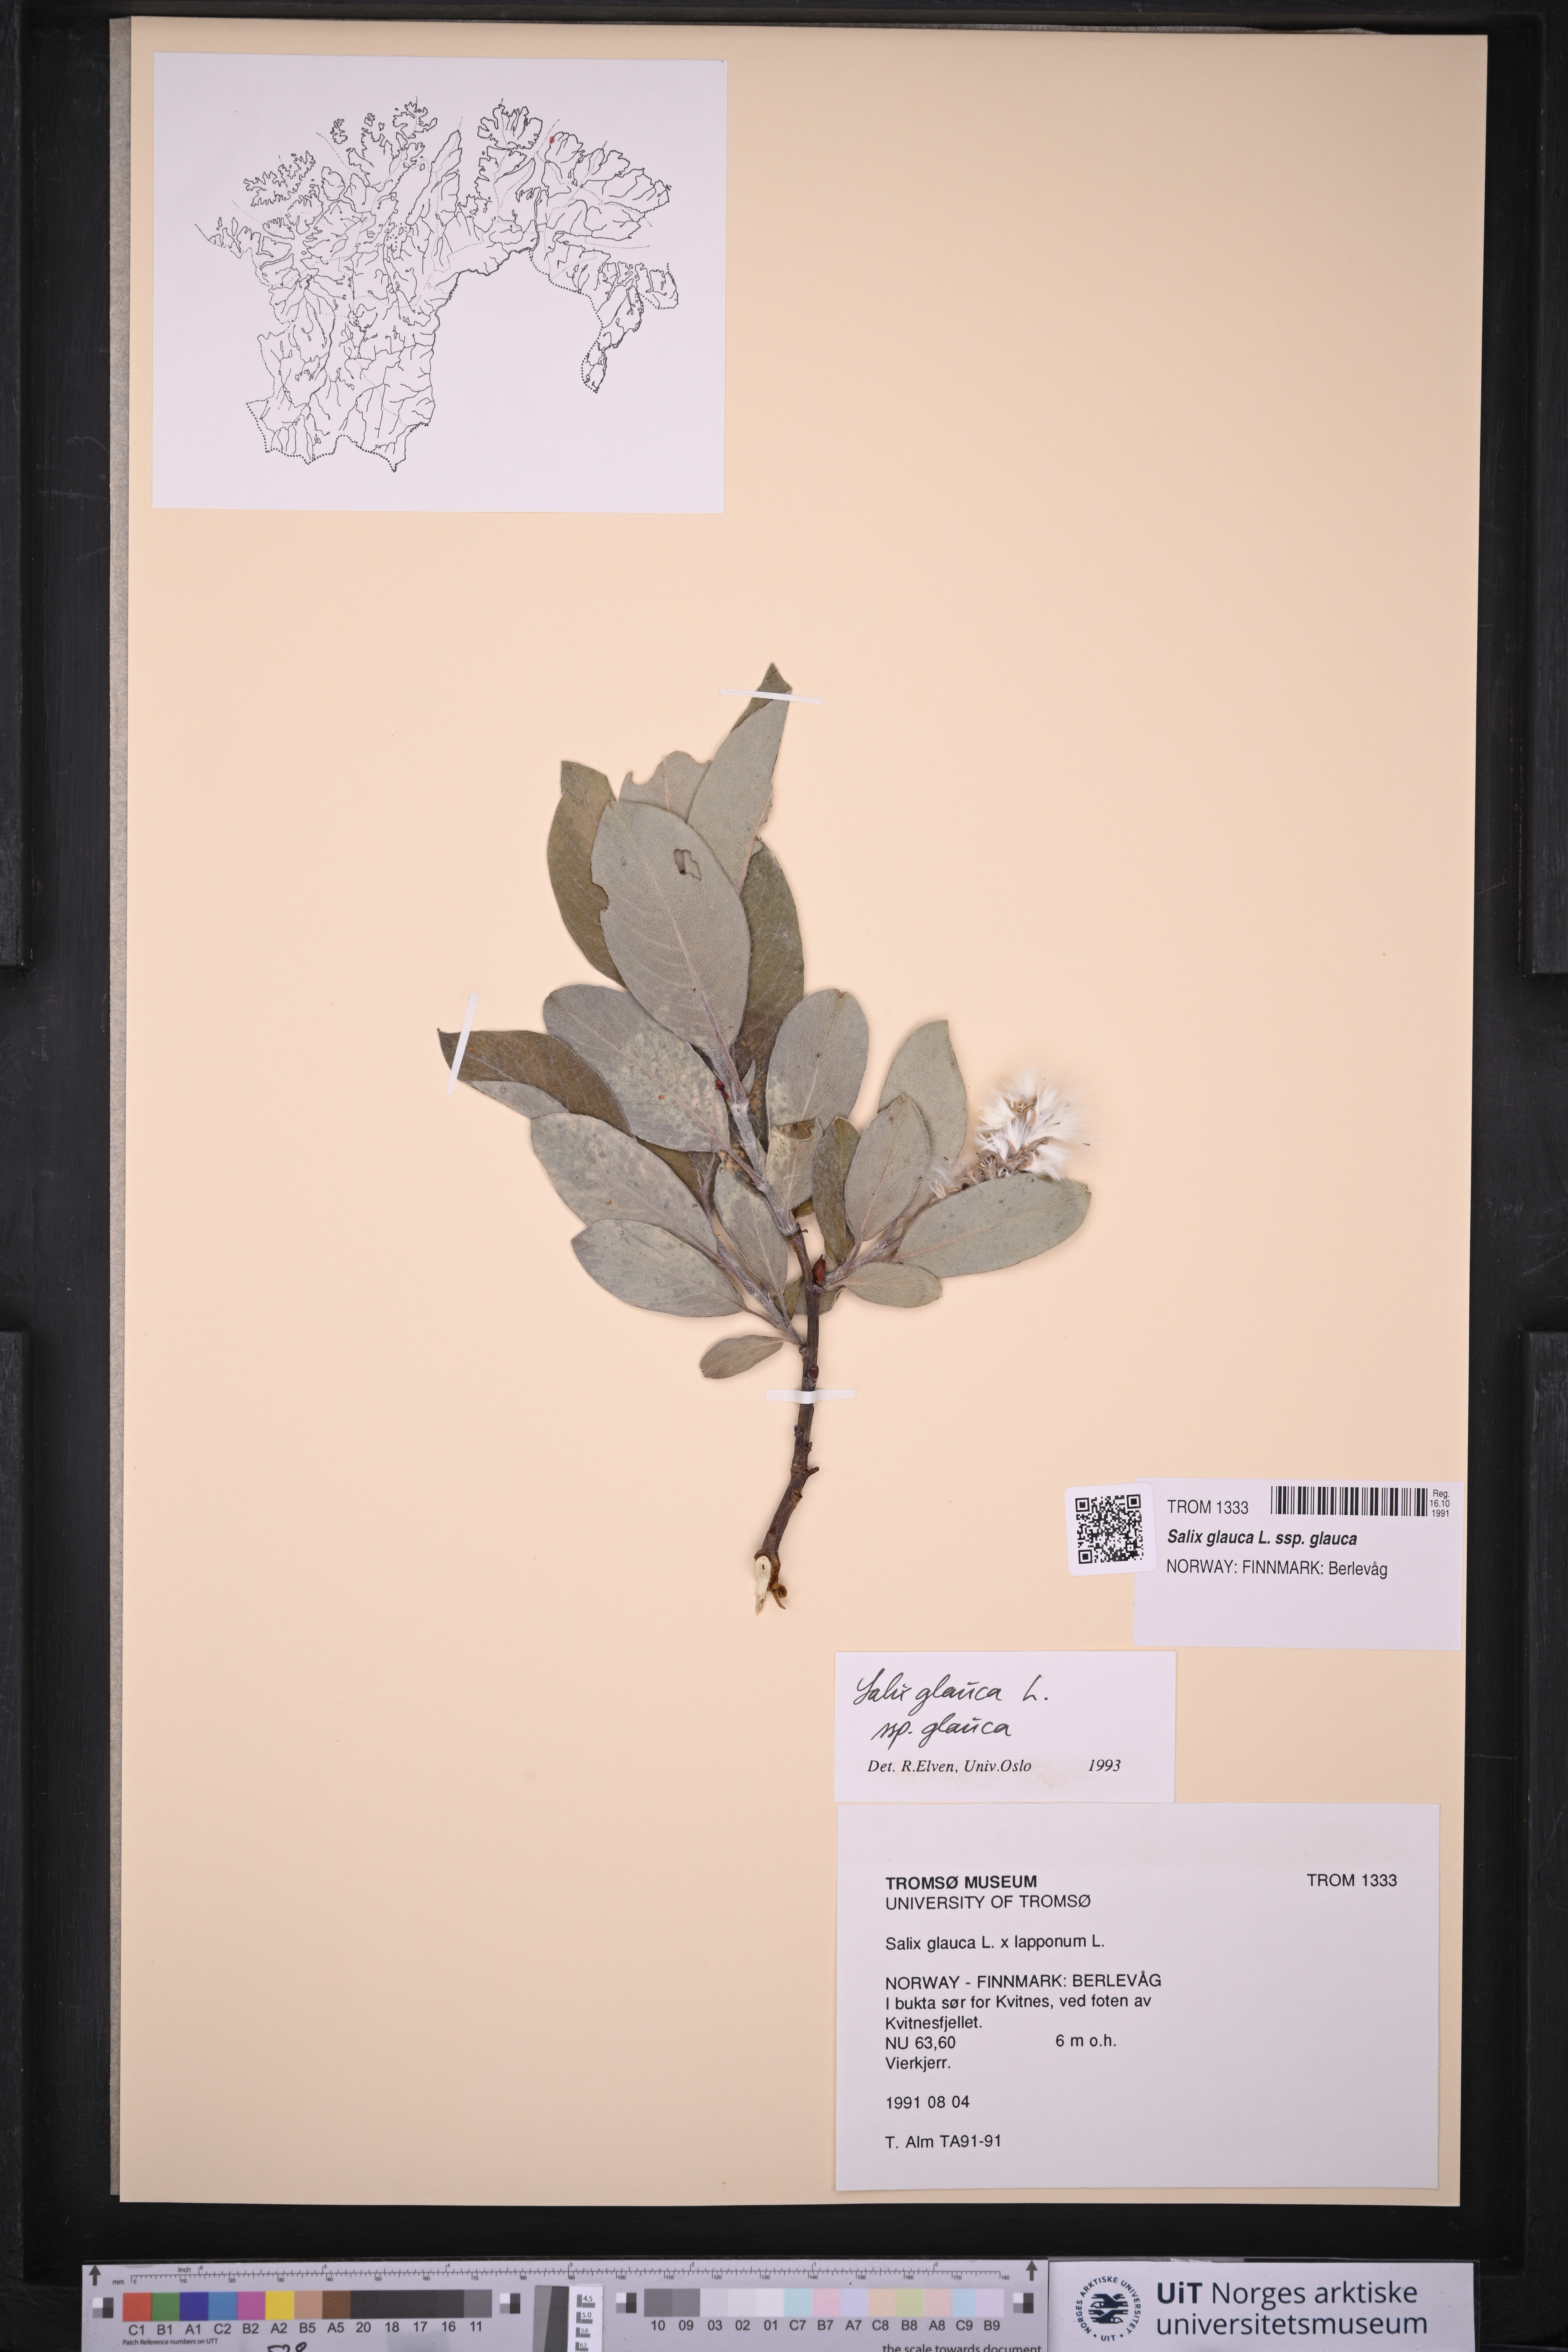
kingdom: Plantae
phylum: Tracheophyta
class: Magnoliopsida
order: Malpighiales
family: Salicaceae
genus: Salix
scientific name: Salix glauca
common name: Glaucous willow
